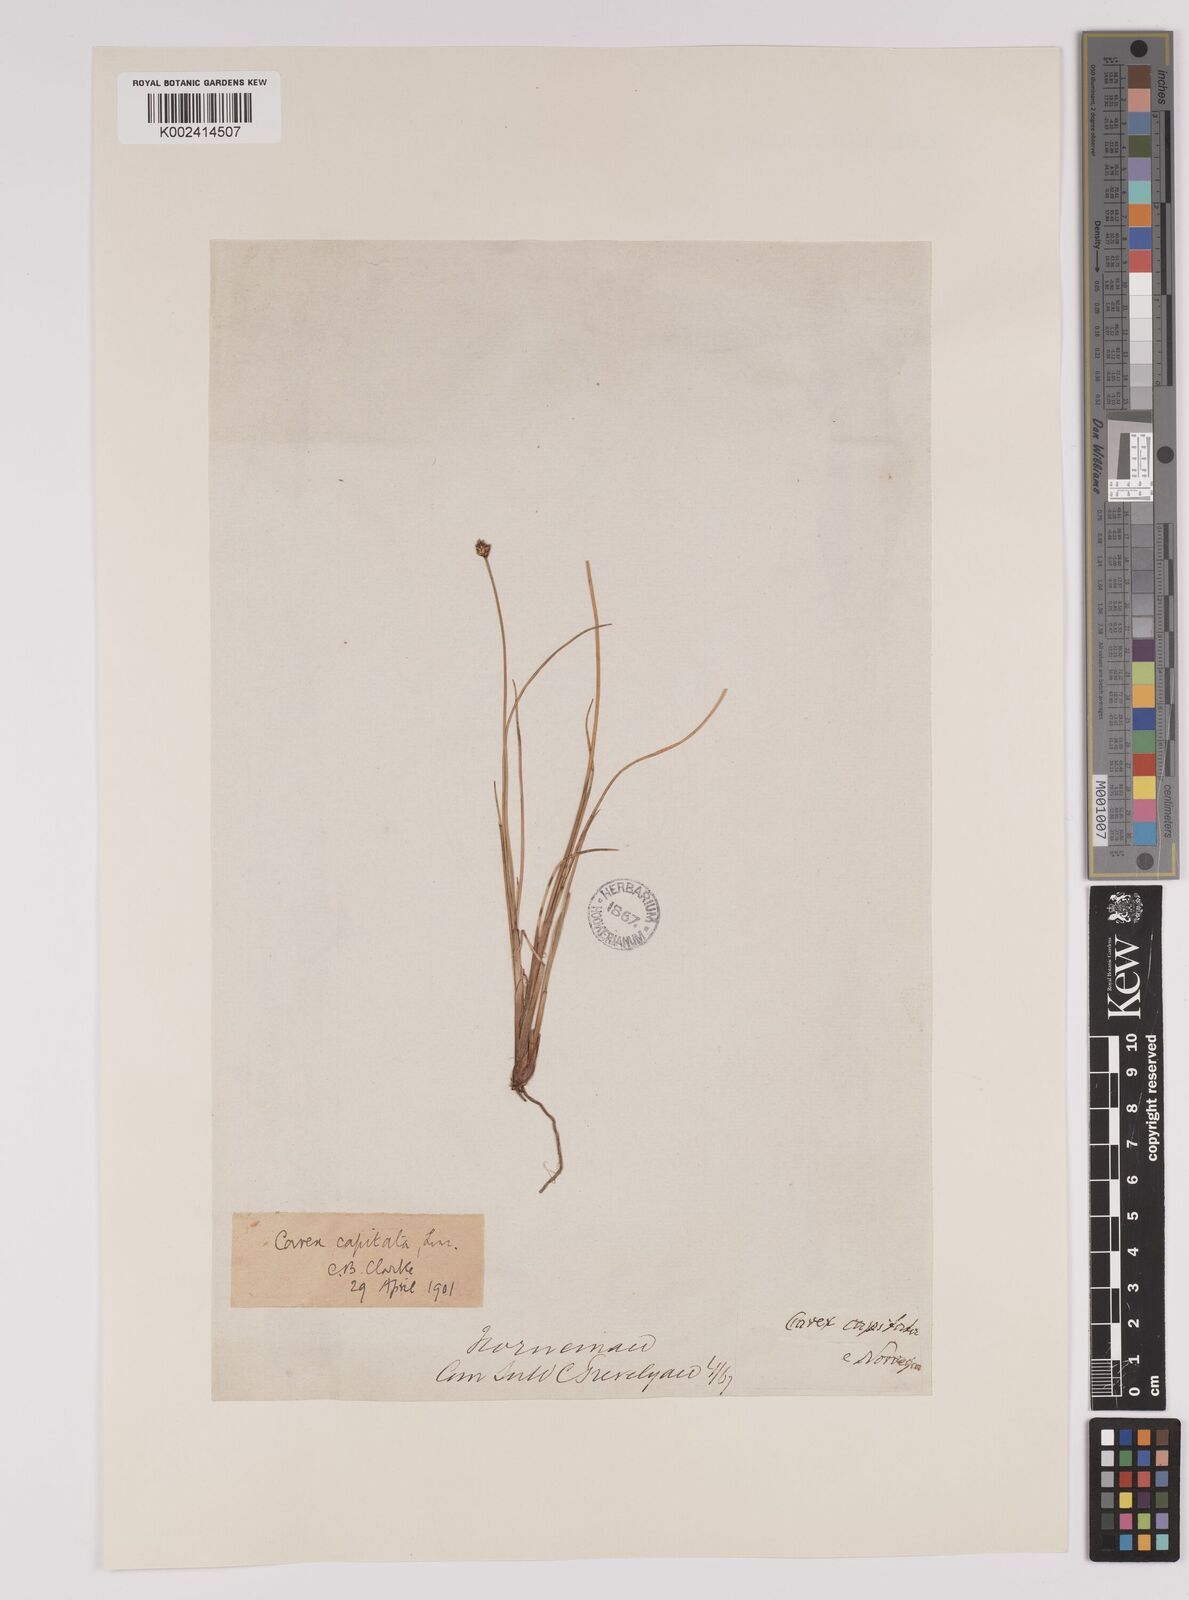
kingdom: Plantae
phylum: Tracheophyta
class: Liliopsida
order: Poales
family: Cyperaceae
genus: Carex
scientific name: Carex capitata
